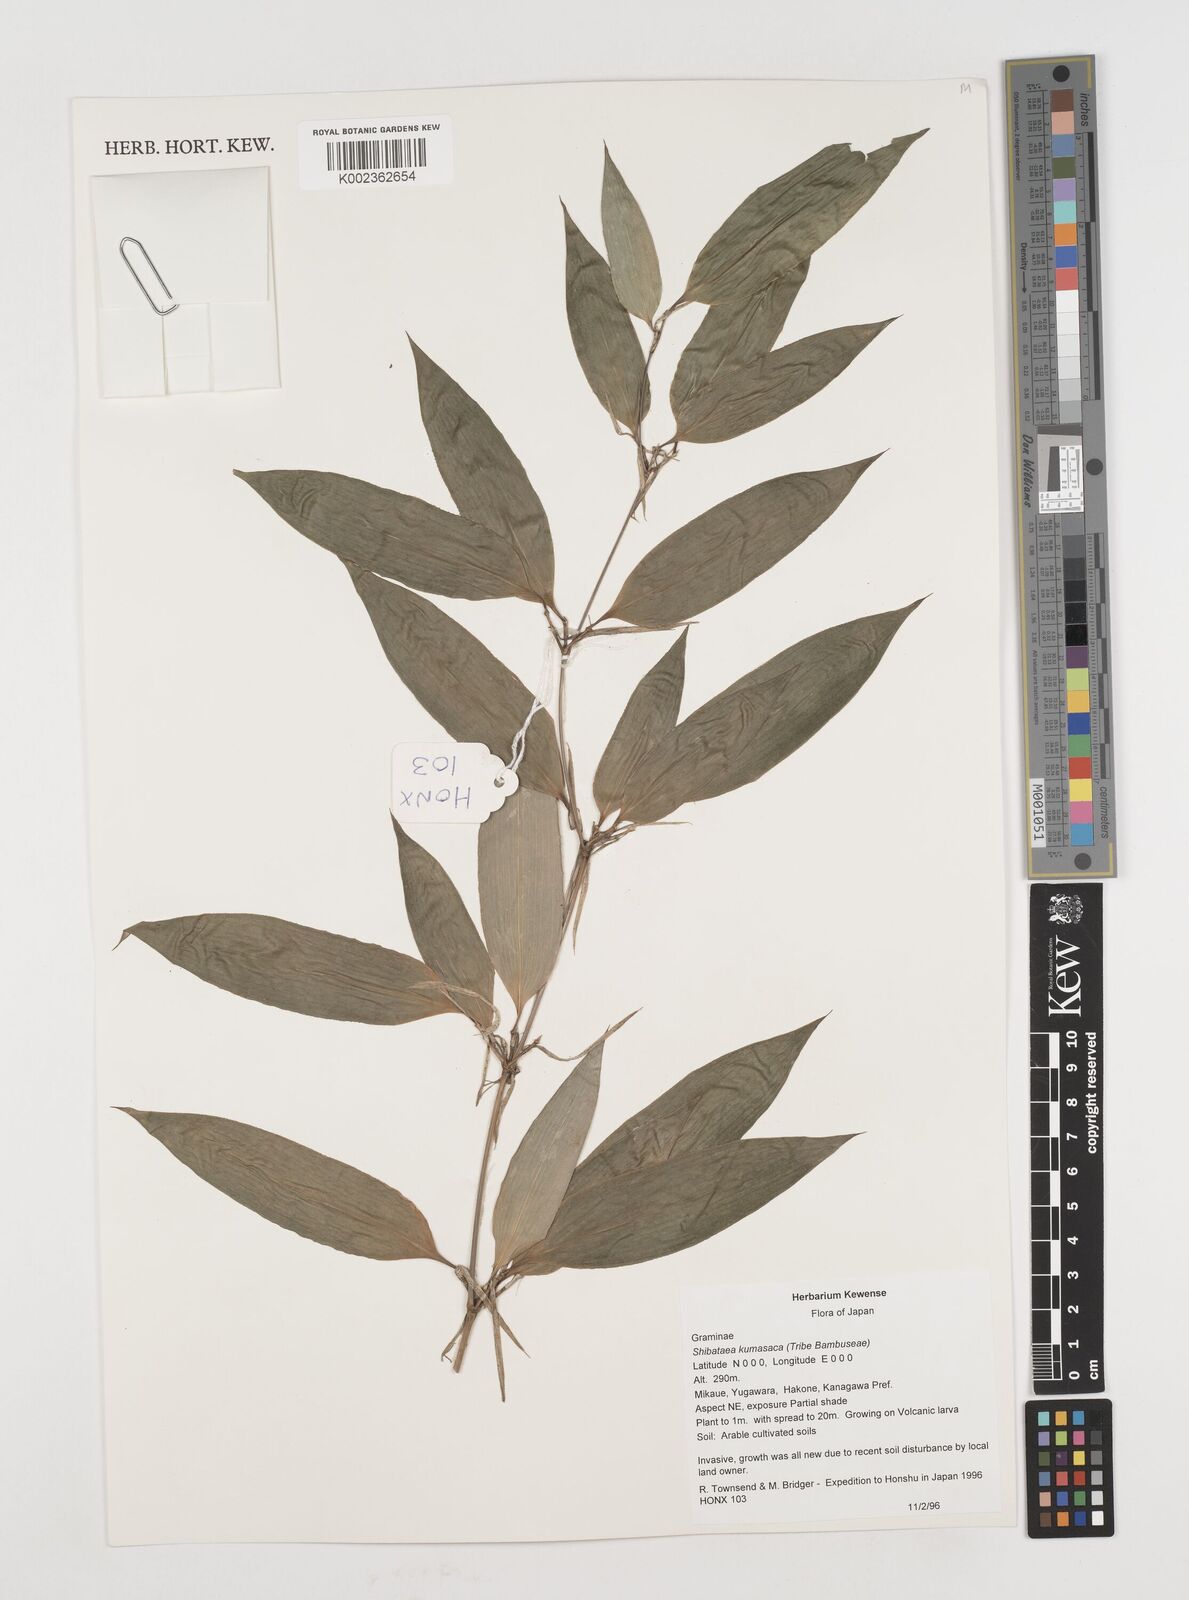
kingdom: Plantae
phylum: Tracheophyta
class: Liliopsida
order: Poales
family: Poaceae
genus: Shibataea
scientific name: Shibataea kumasasa
